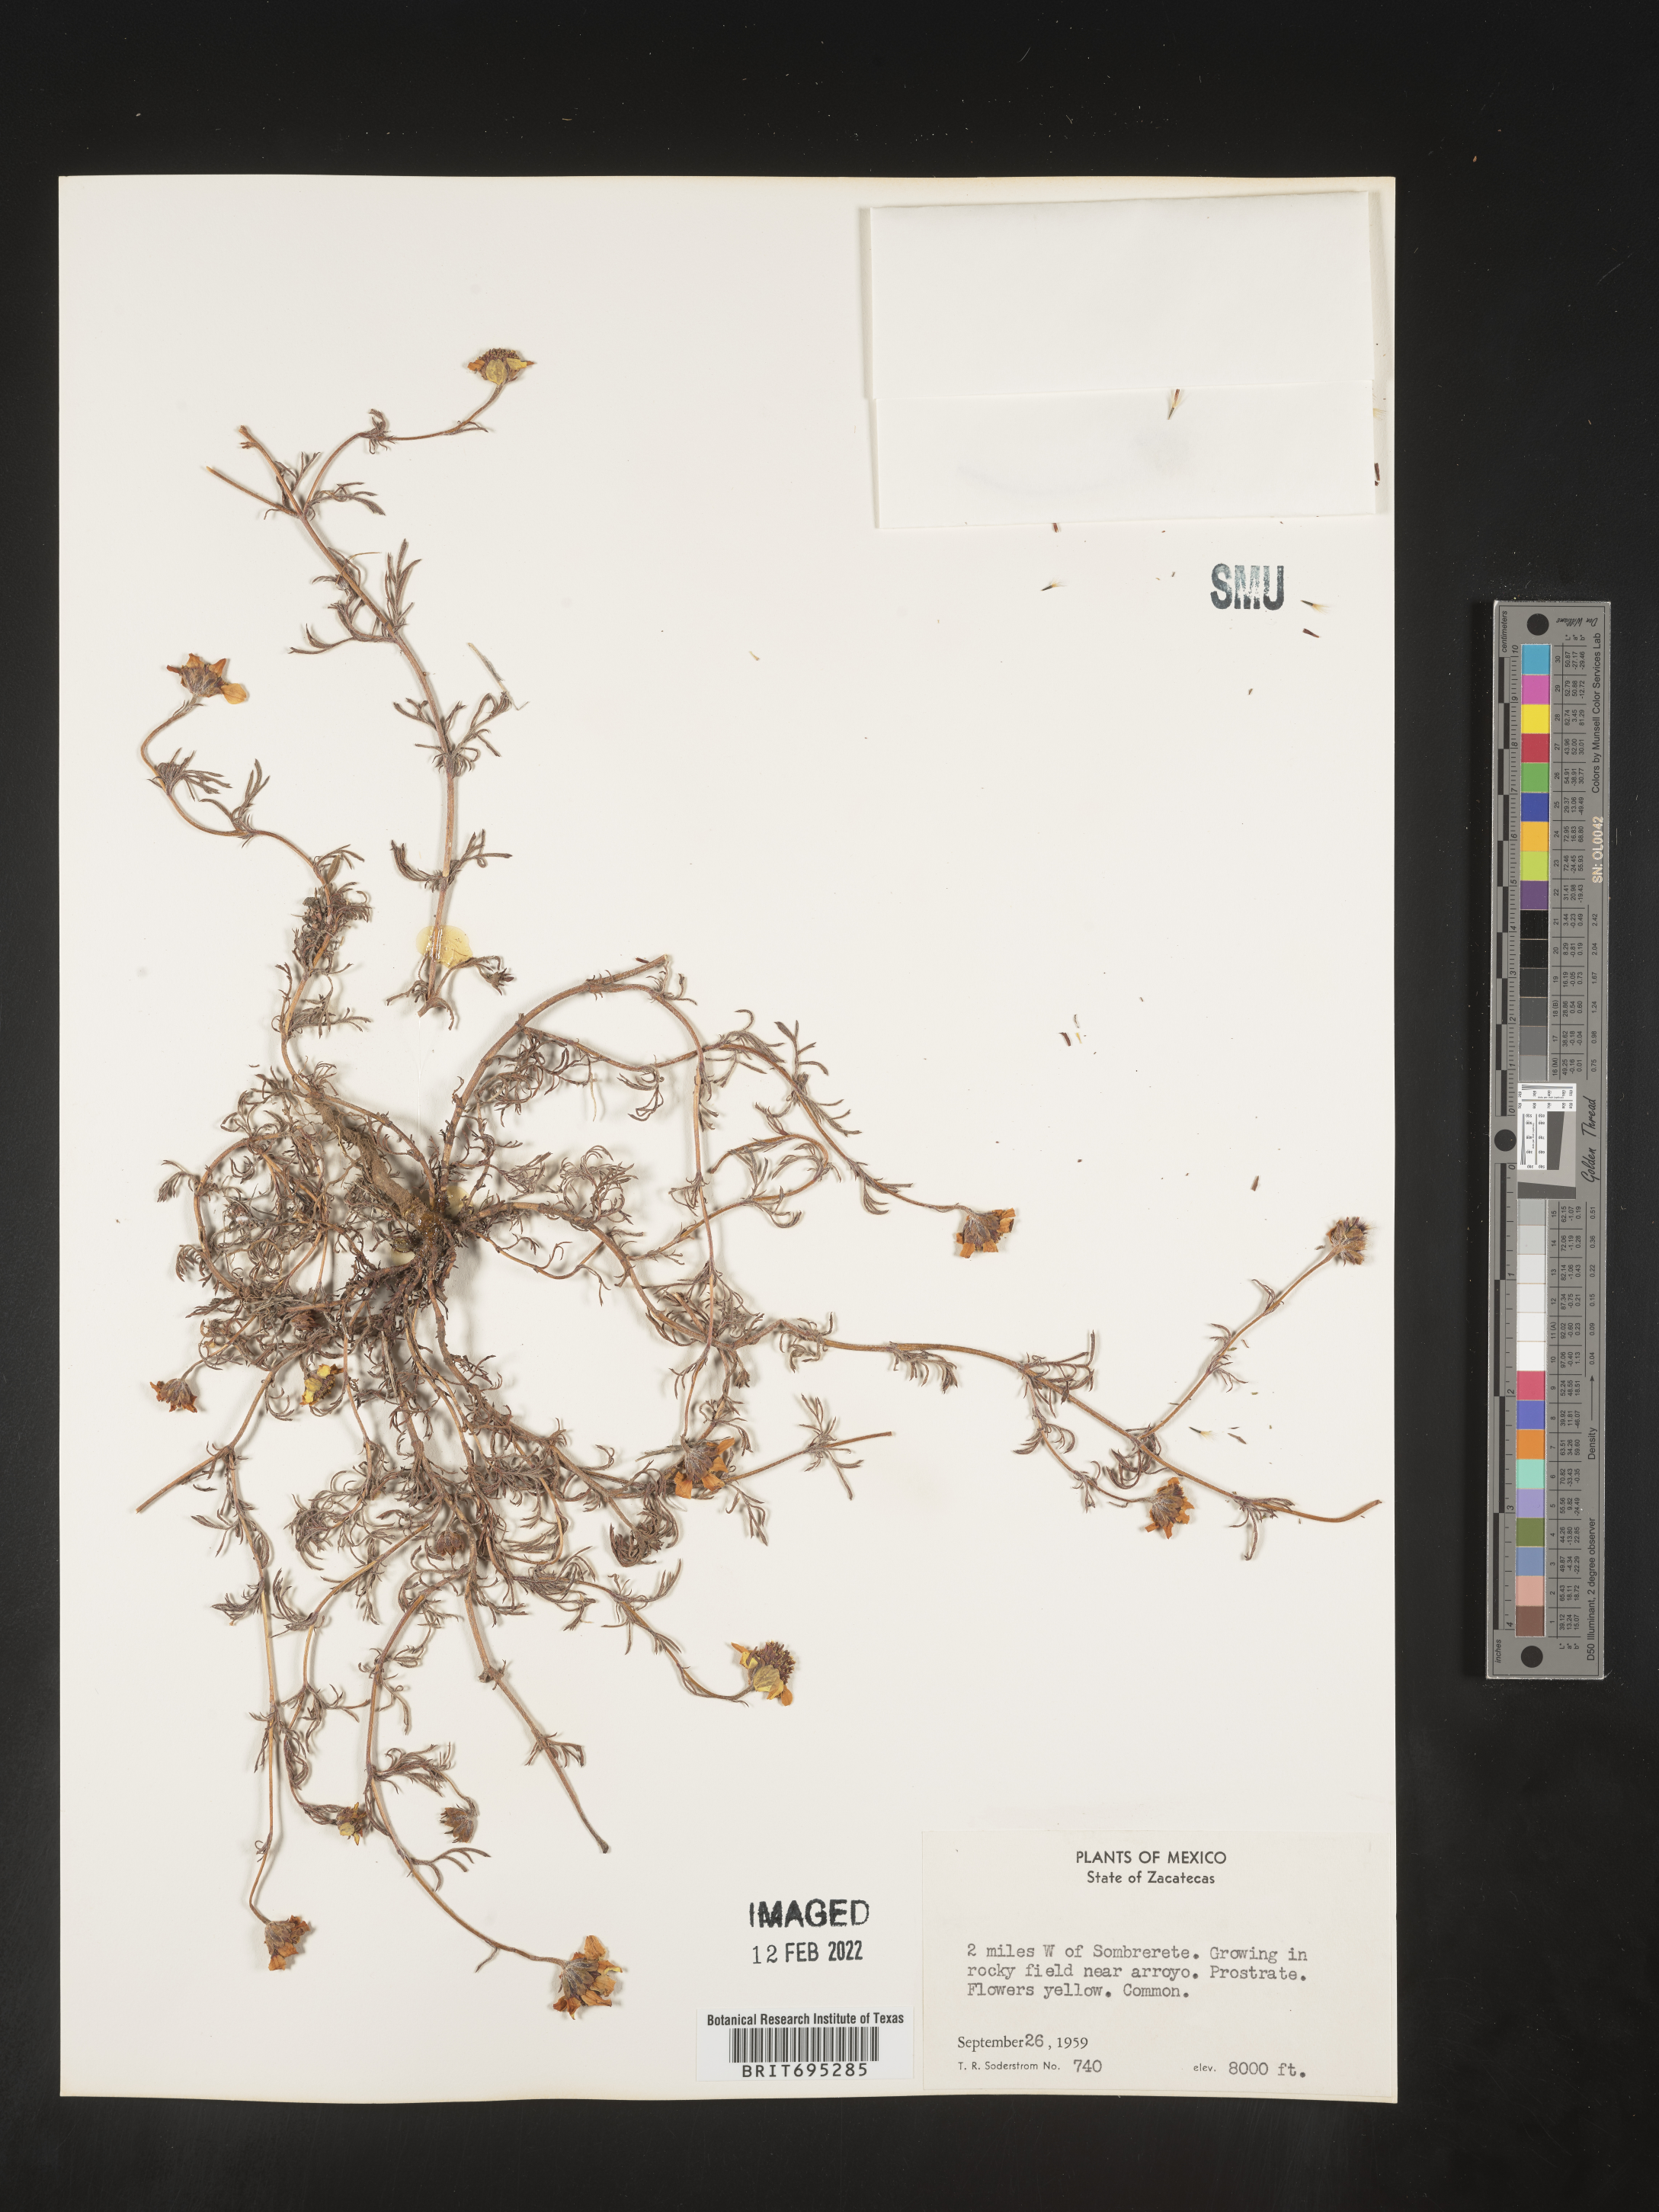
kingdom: Plantae
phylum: Tracheophyta
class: Magnoliopsida
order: Asterales
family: Asteraceae
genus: Dyssodia
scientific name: Dyssodia
